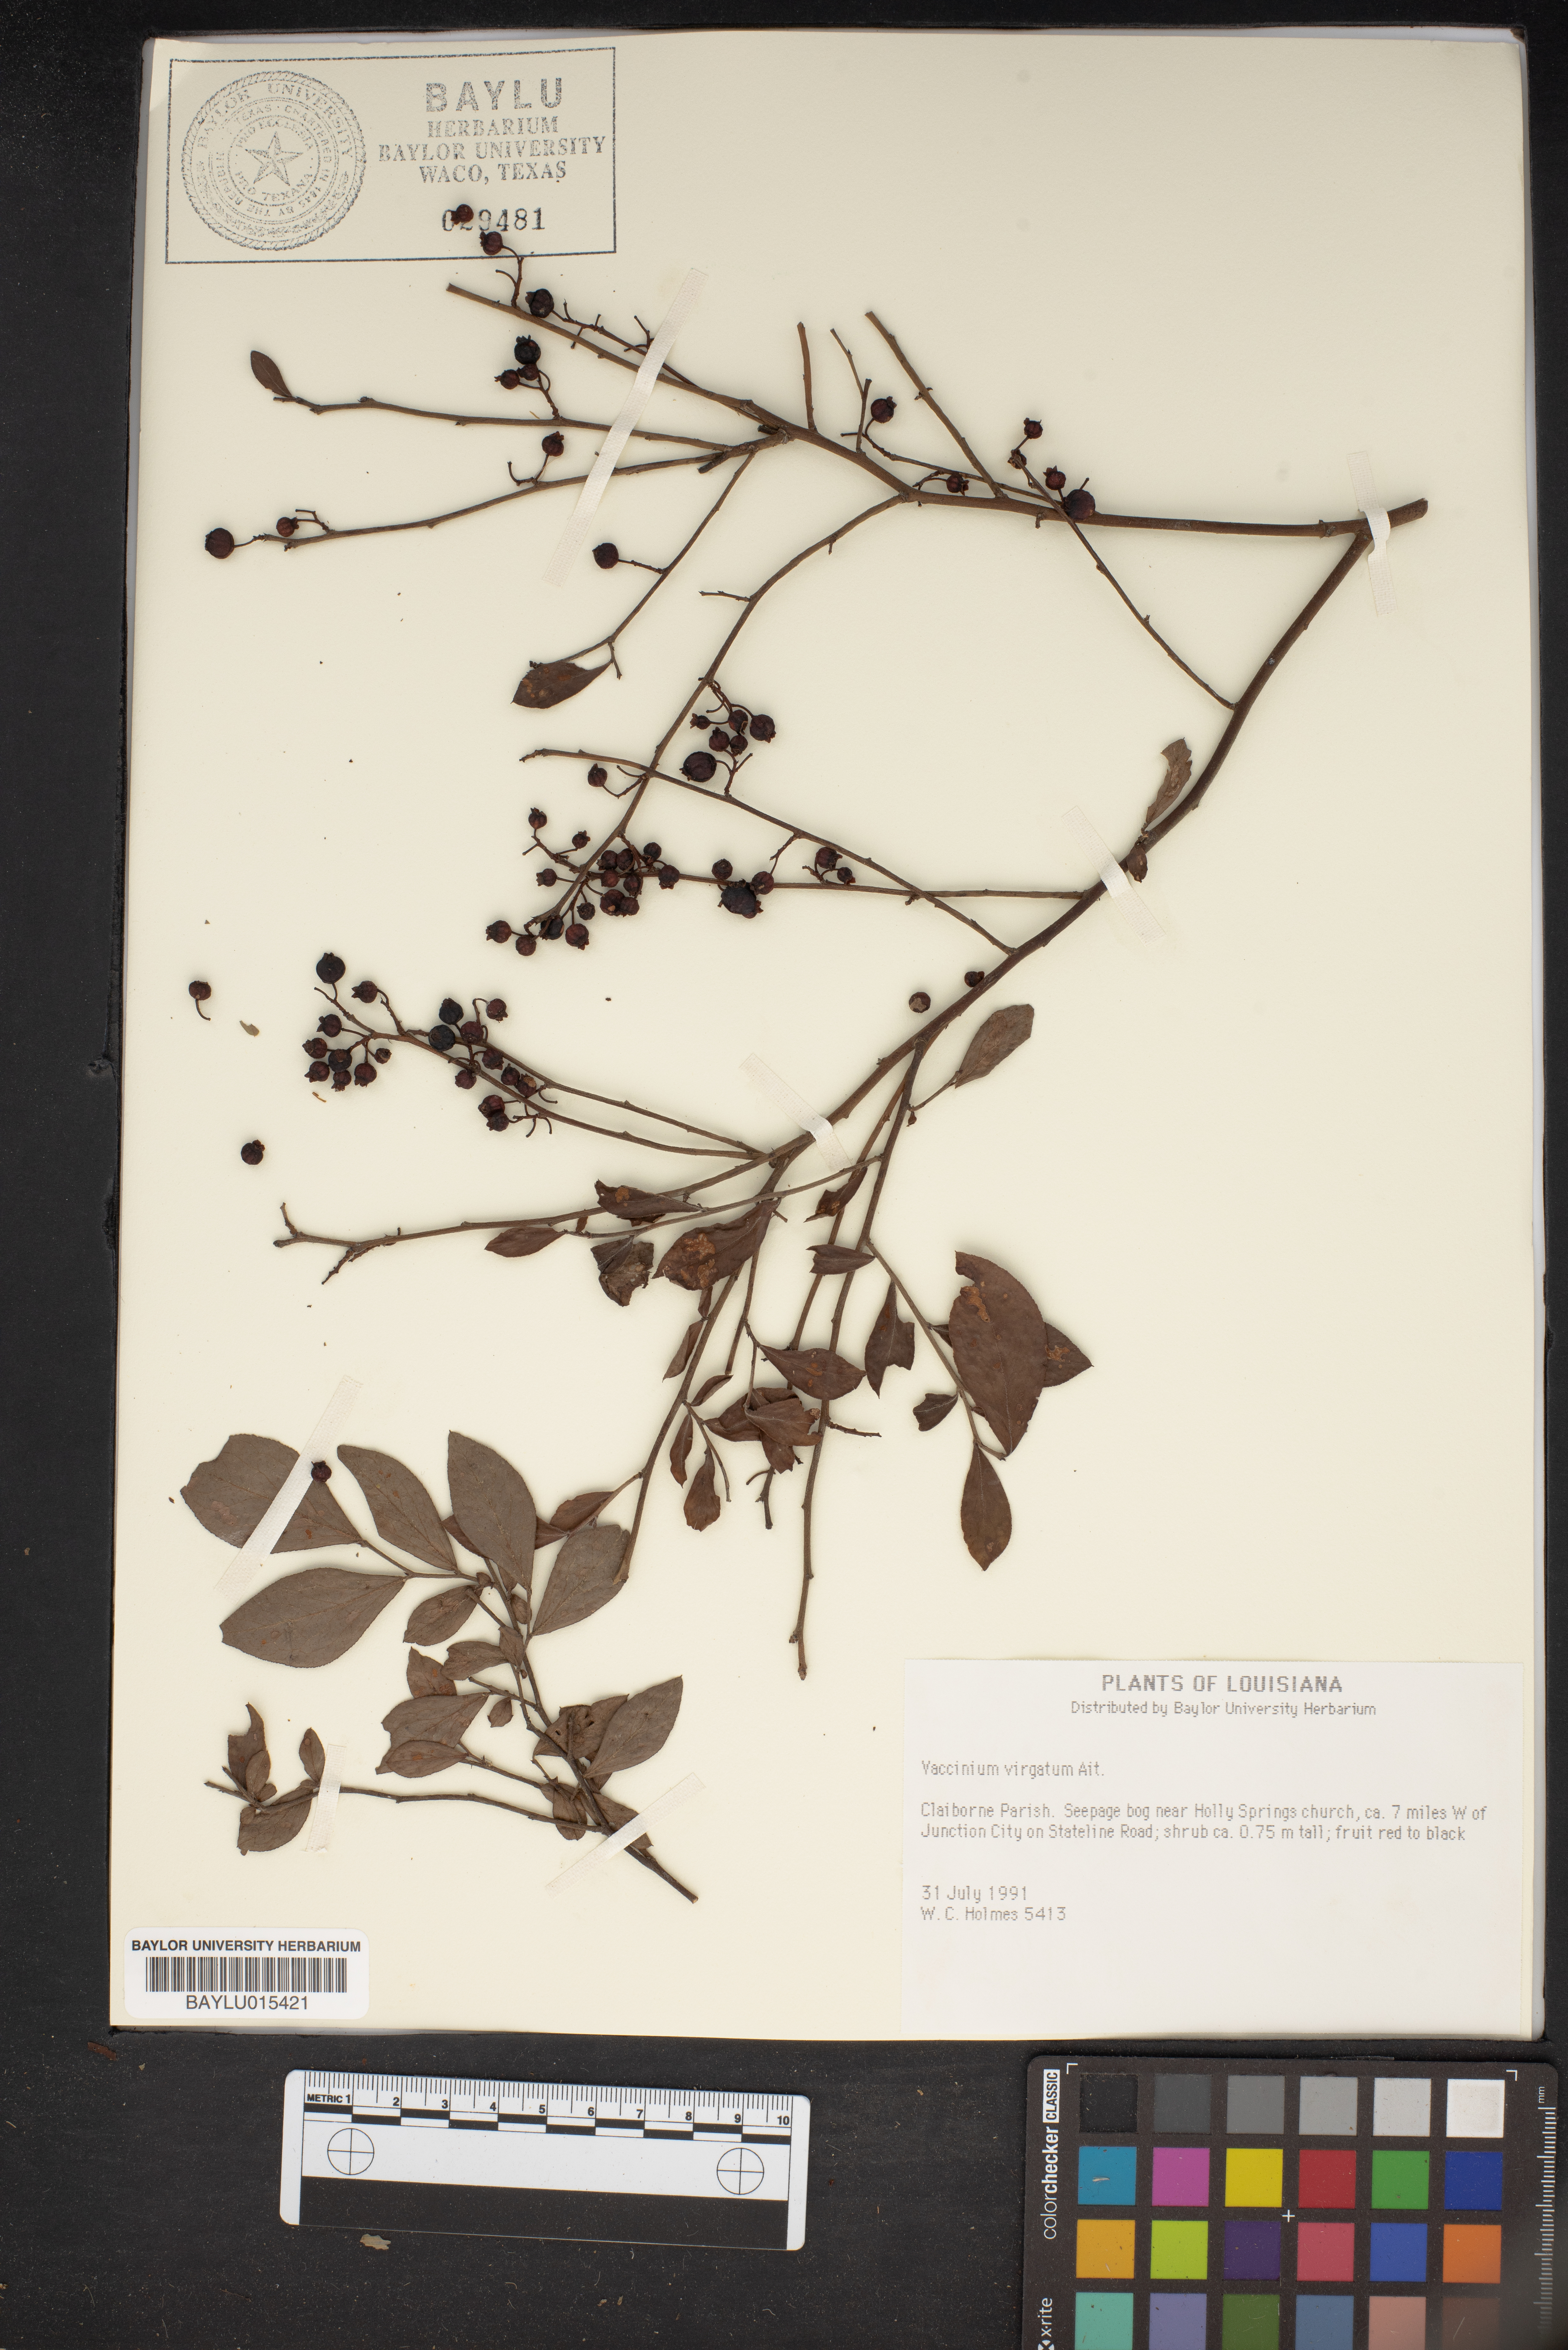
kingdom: Plantae
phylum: Tracheophyta
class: Magnoliopsida
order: Ericales
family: Ericaceae
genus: Vaccinium
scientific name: Vaccinium corymbosum
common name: Blueberry
